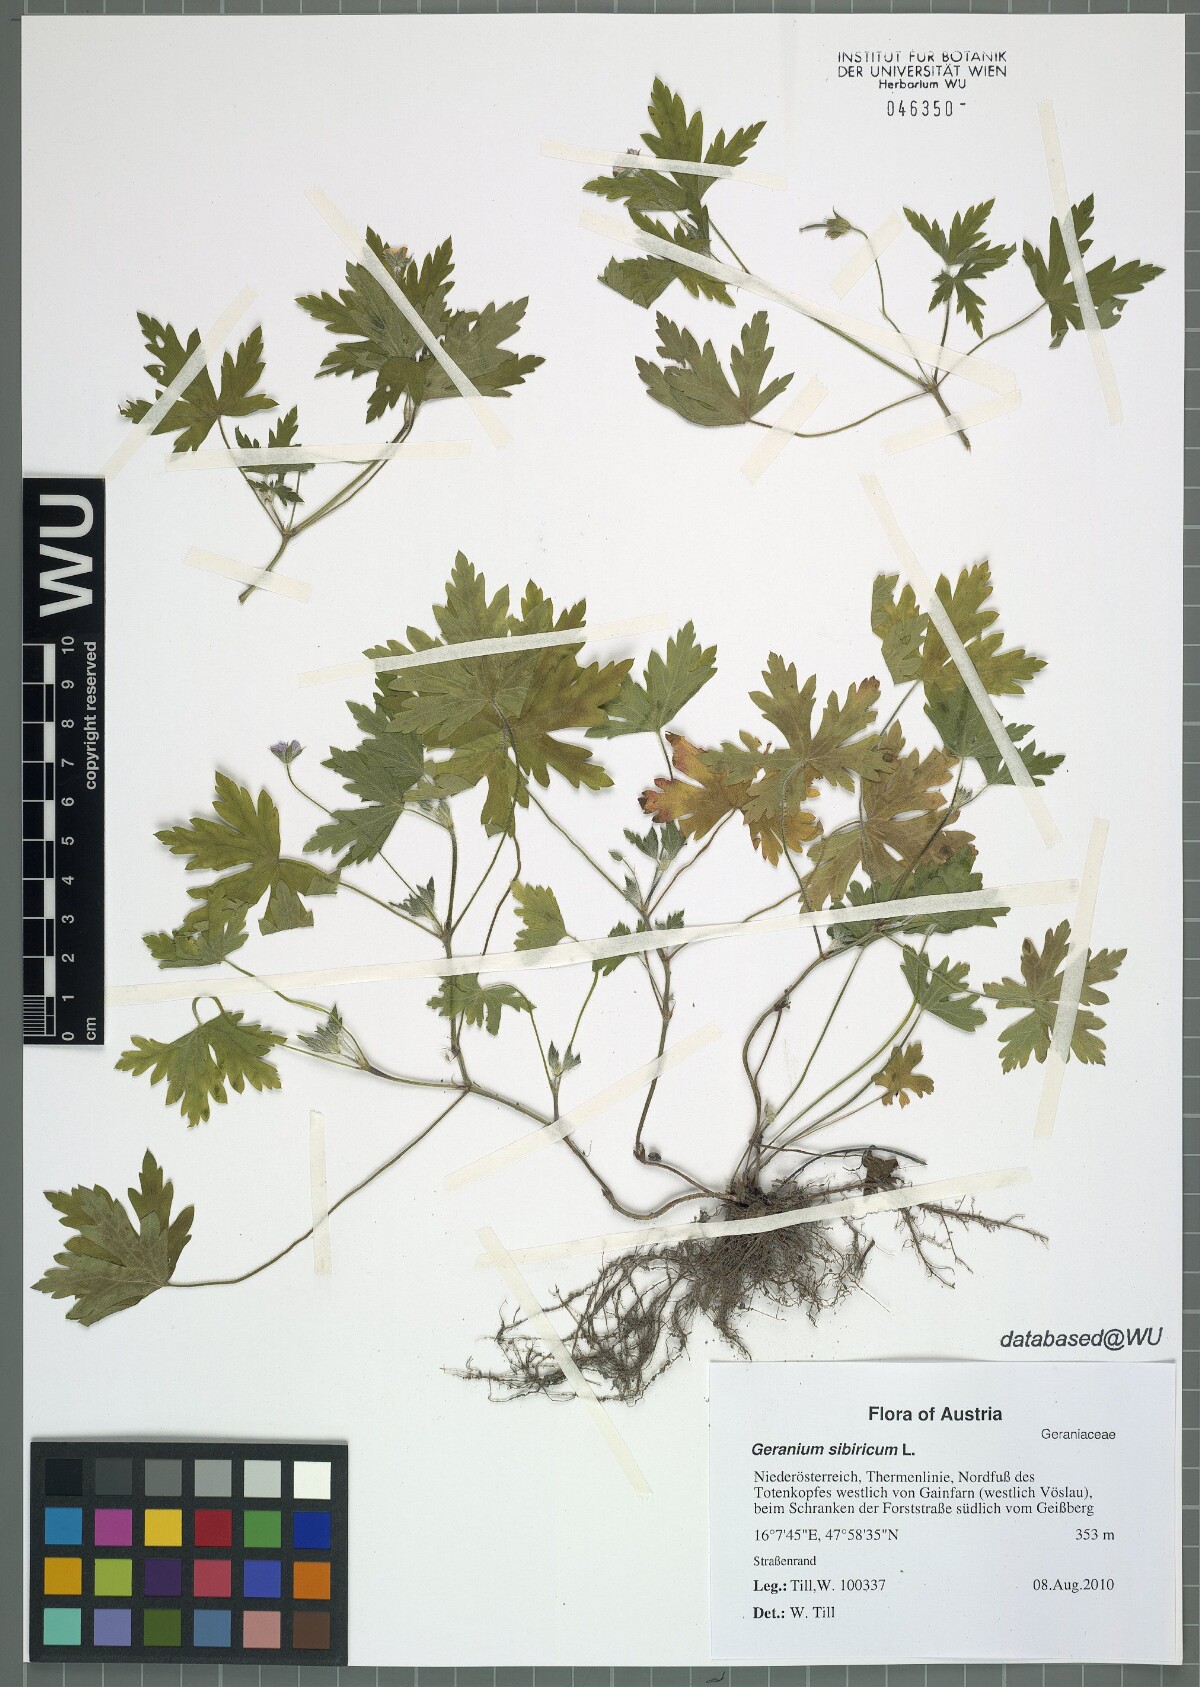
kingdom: Plantae
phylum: Tracheophyta
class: Magnoliopsida
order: Geraniales
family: Geraniaceae
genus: Geranium
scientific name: Geranium sibiricum
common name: Siberian crane's-bill
